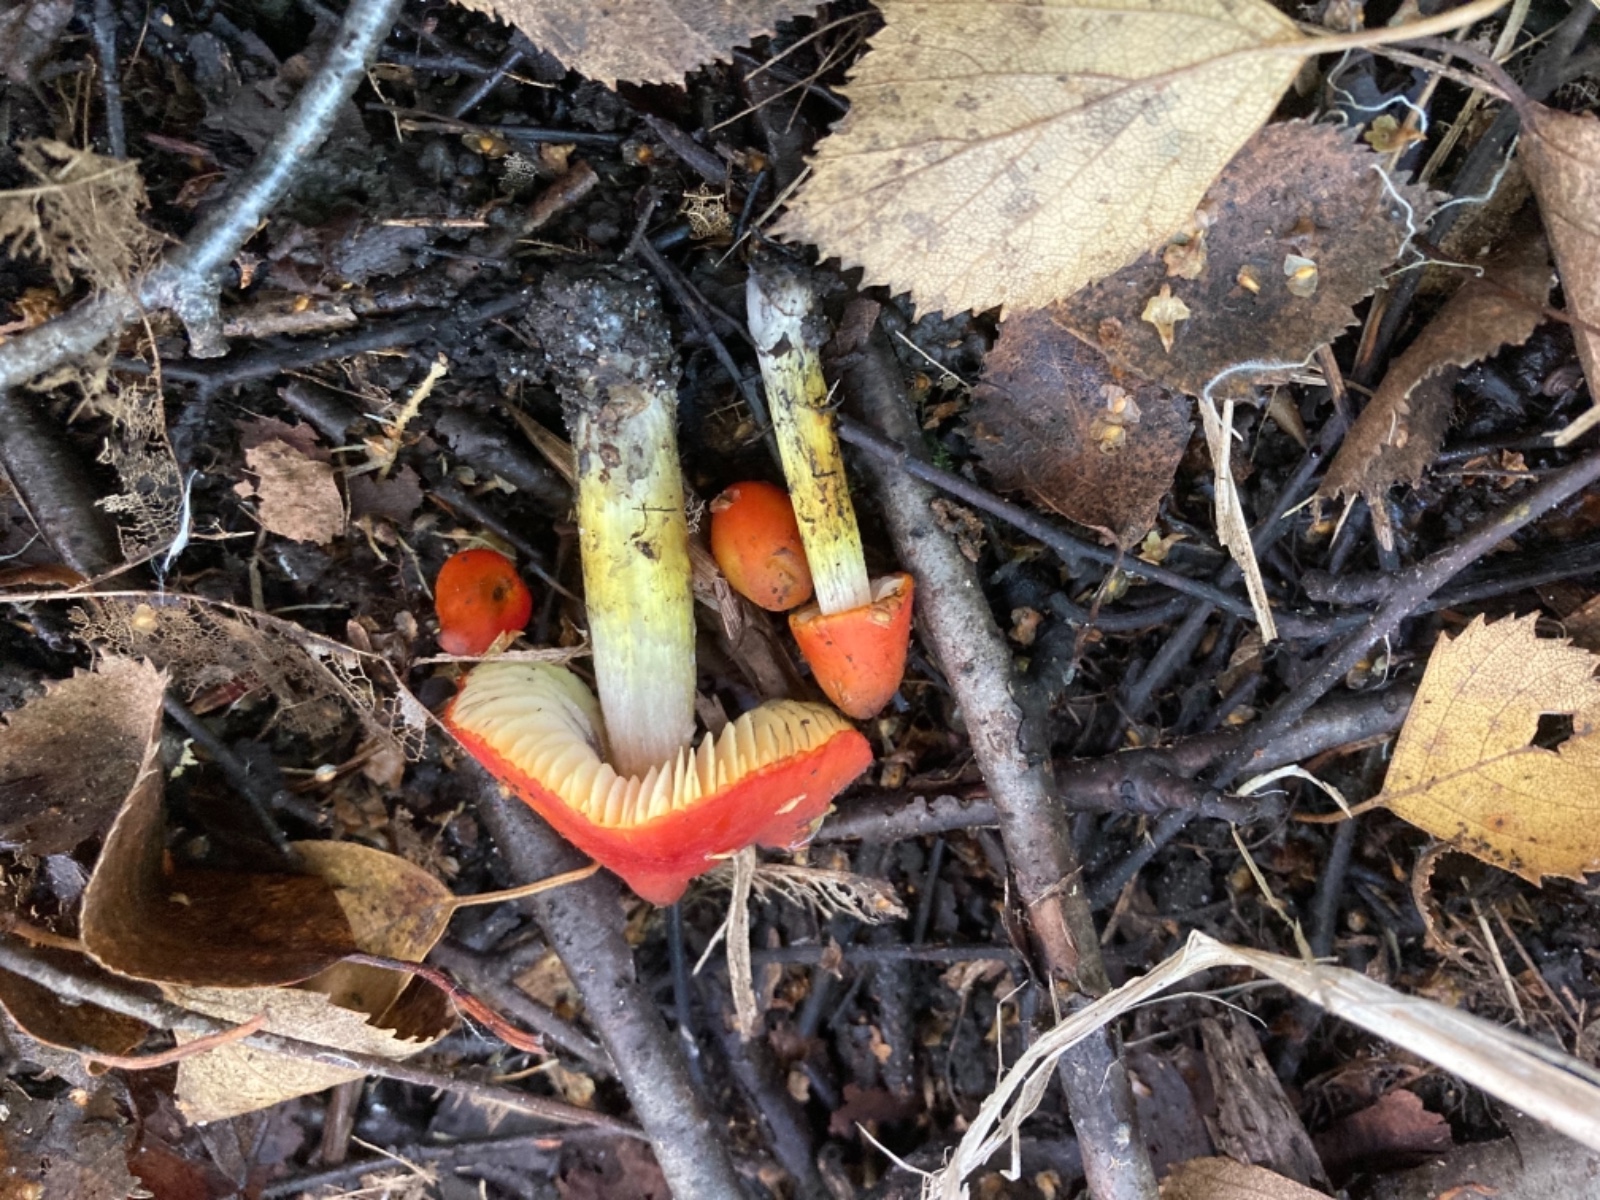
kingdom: Fungi
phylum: Basidiomycota
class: Agaricomycetes
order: Agaricales
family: Hygrophoraceae
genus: Hygrocybe
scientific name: Hygrocybe conica
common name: kegle-vokshat
